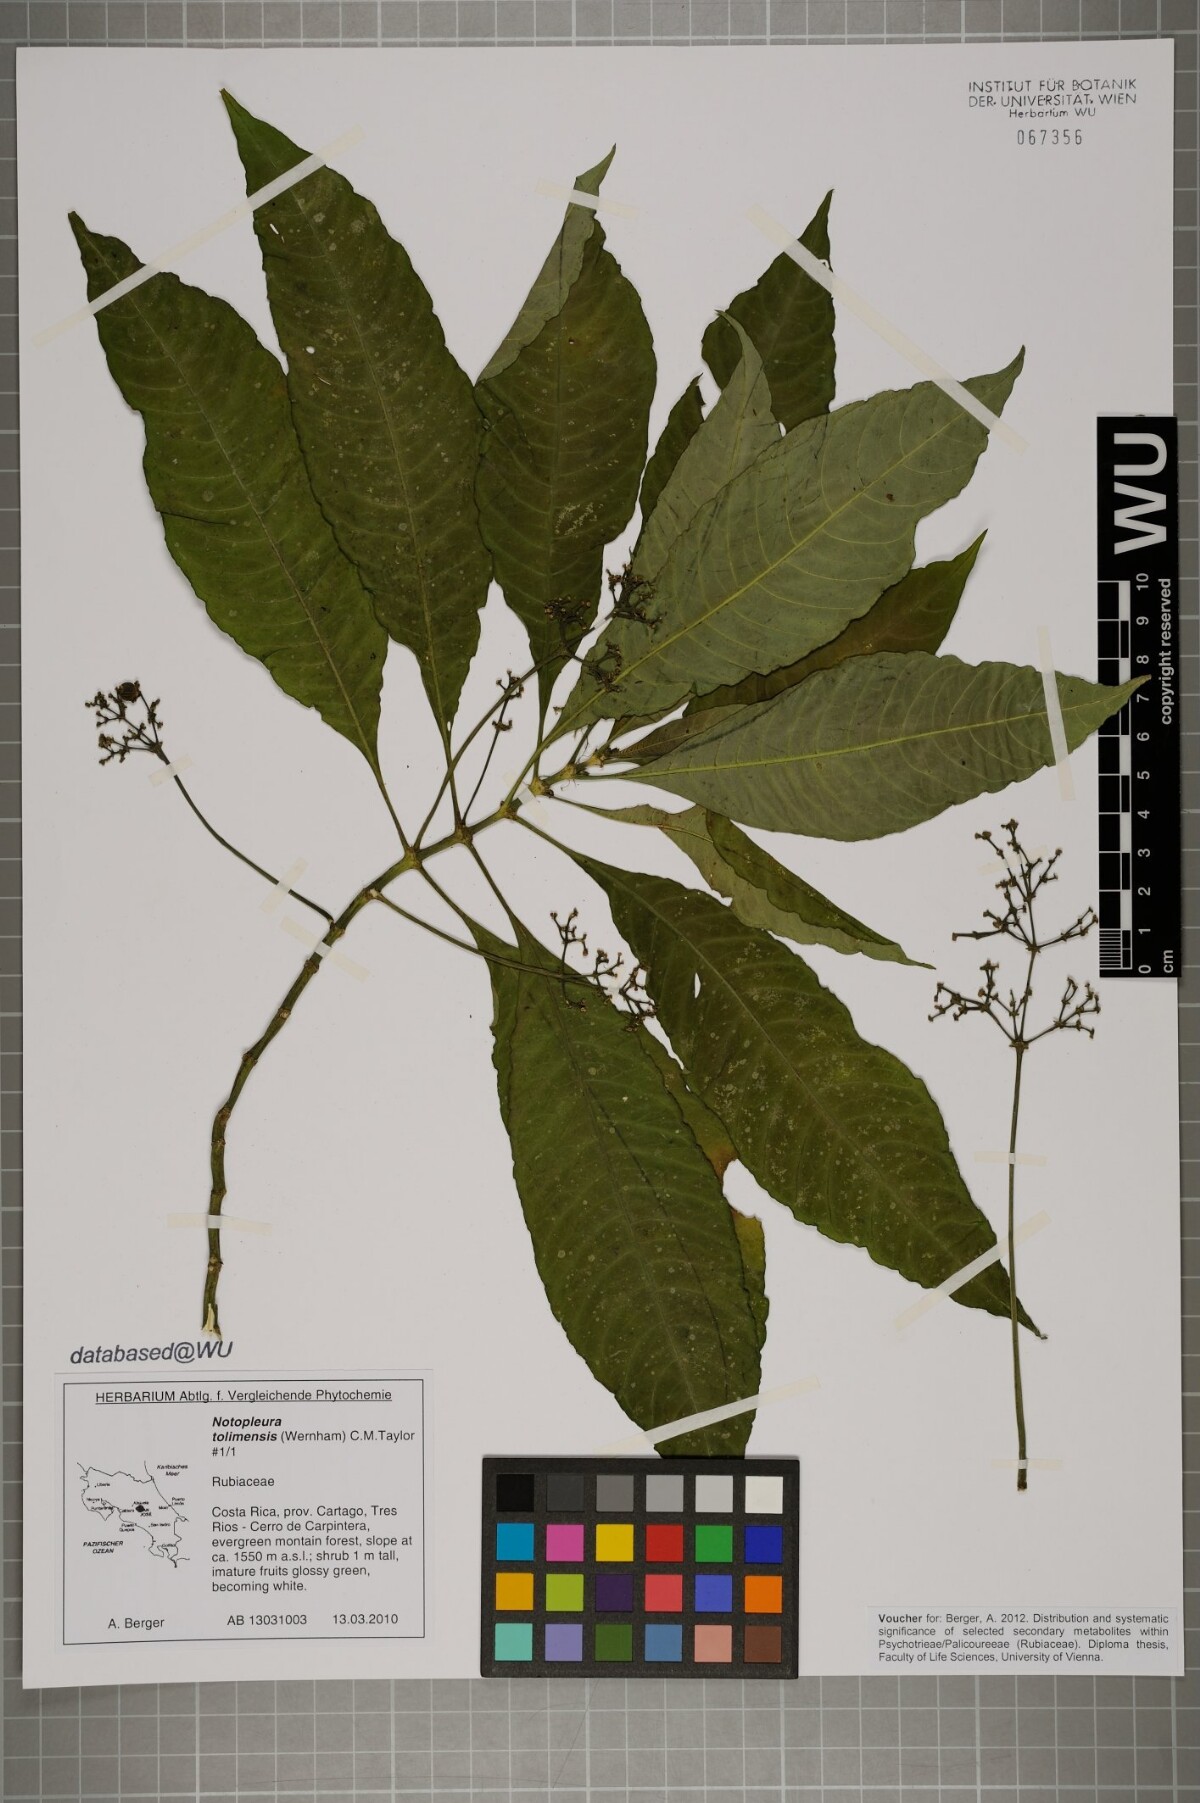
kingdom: Plantae
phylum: Tracheophyta
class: Magnoliopsida
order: Gentianales
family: Rubiaceae
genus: Notopleura
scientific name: Notopleura tolimensis
